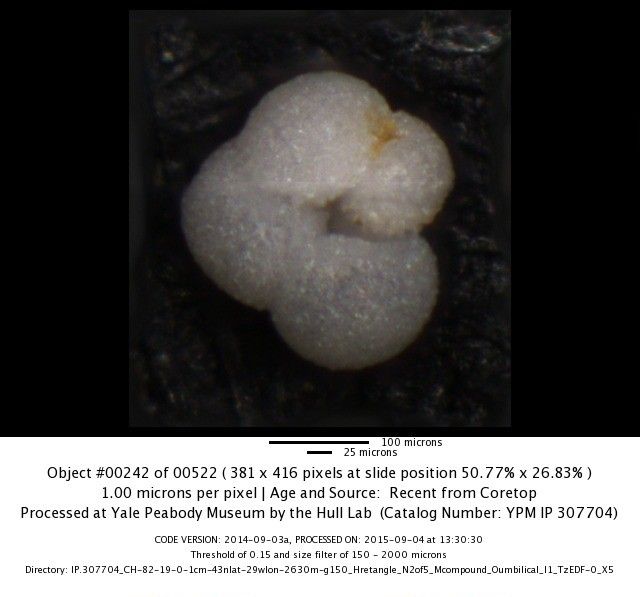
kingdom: Chromista
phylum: Foraminifera
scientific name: Foraminifera
